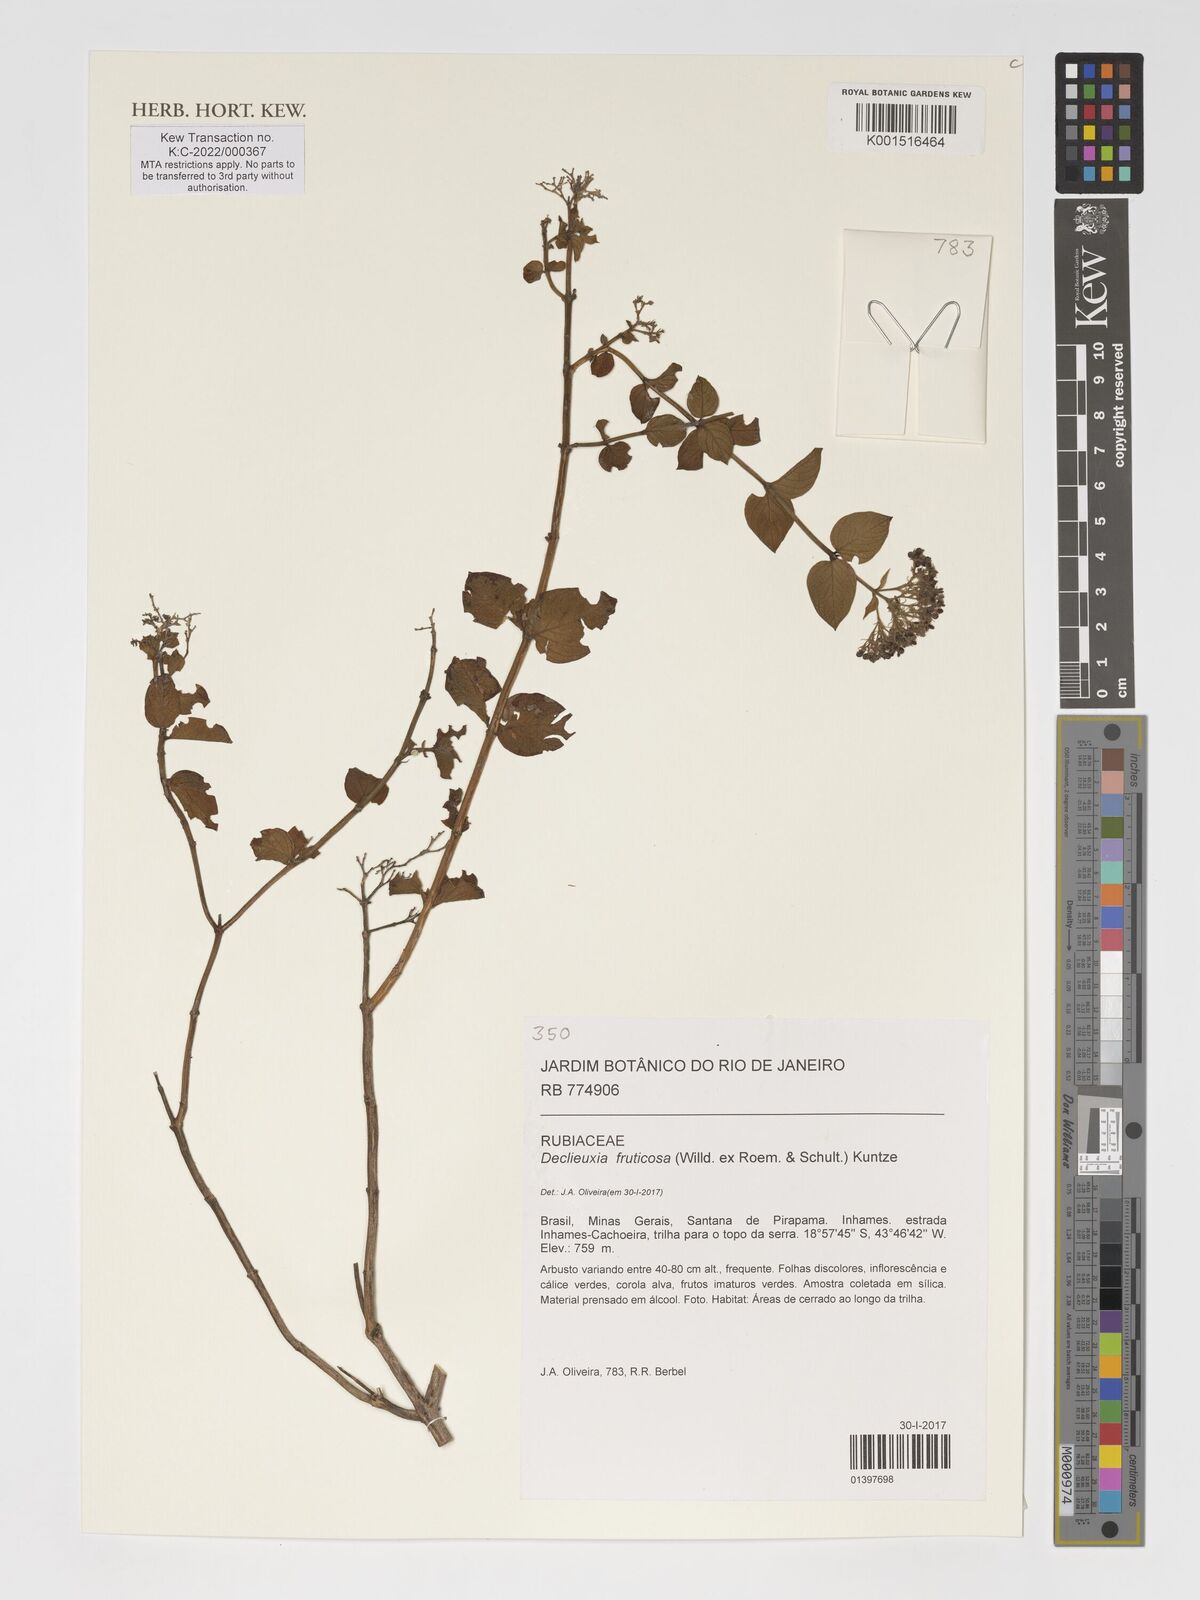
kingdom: Plantae
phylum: Tracheophyta
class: Magnoliopsida
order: Gentianales
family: Rubiaceae
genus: Declieuxia
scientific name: Declieuxia fruticosa
